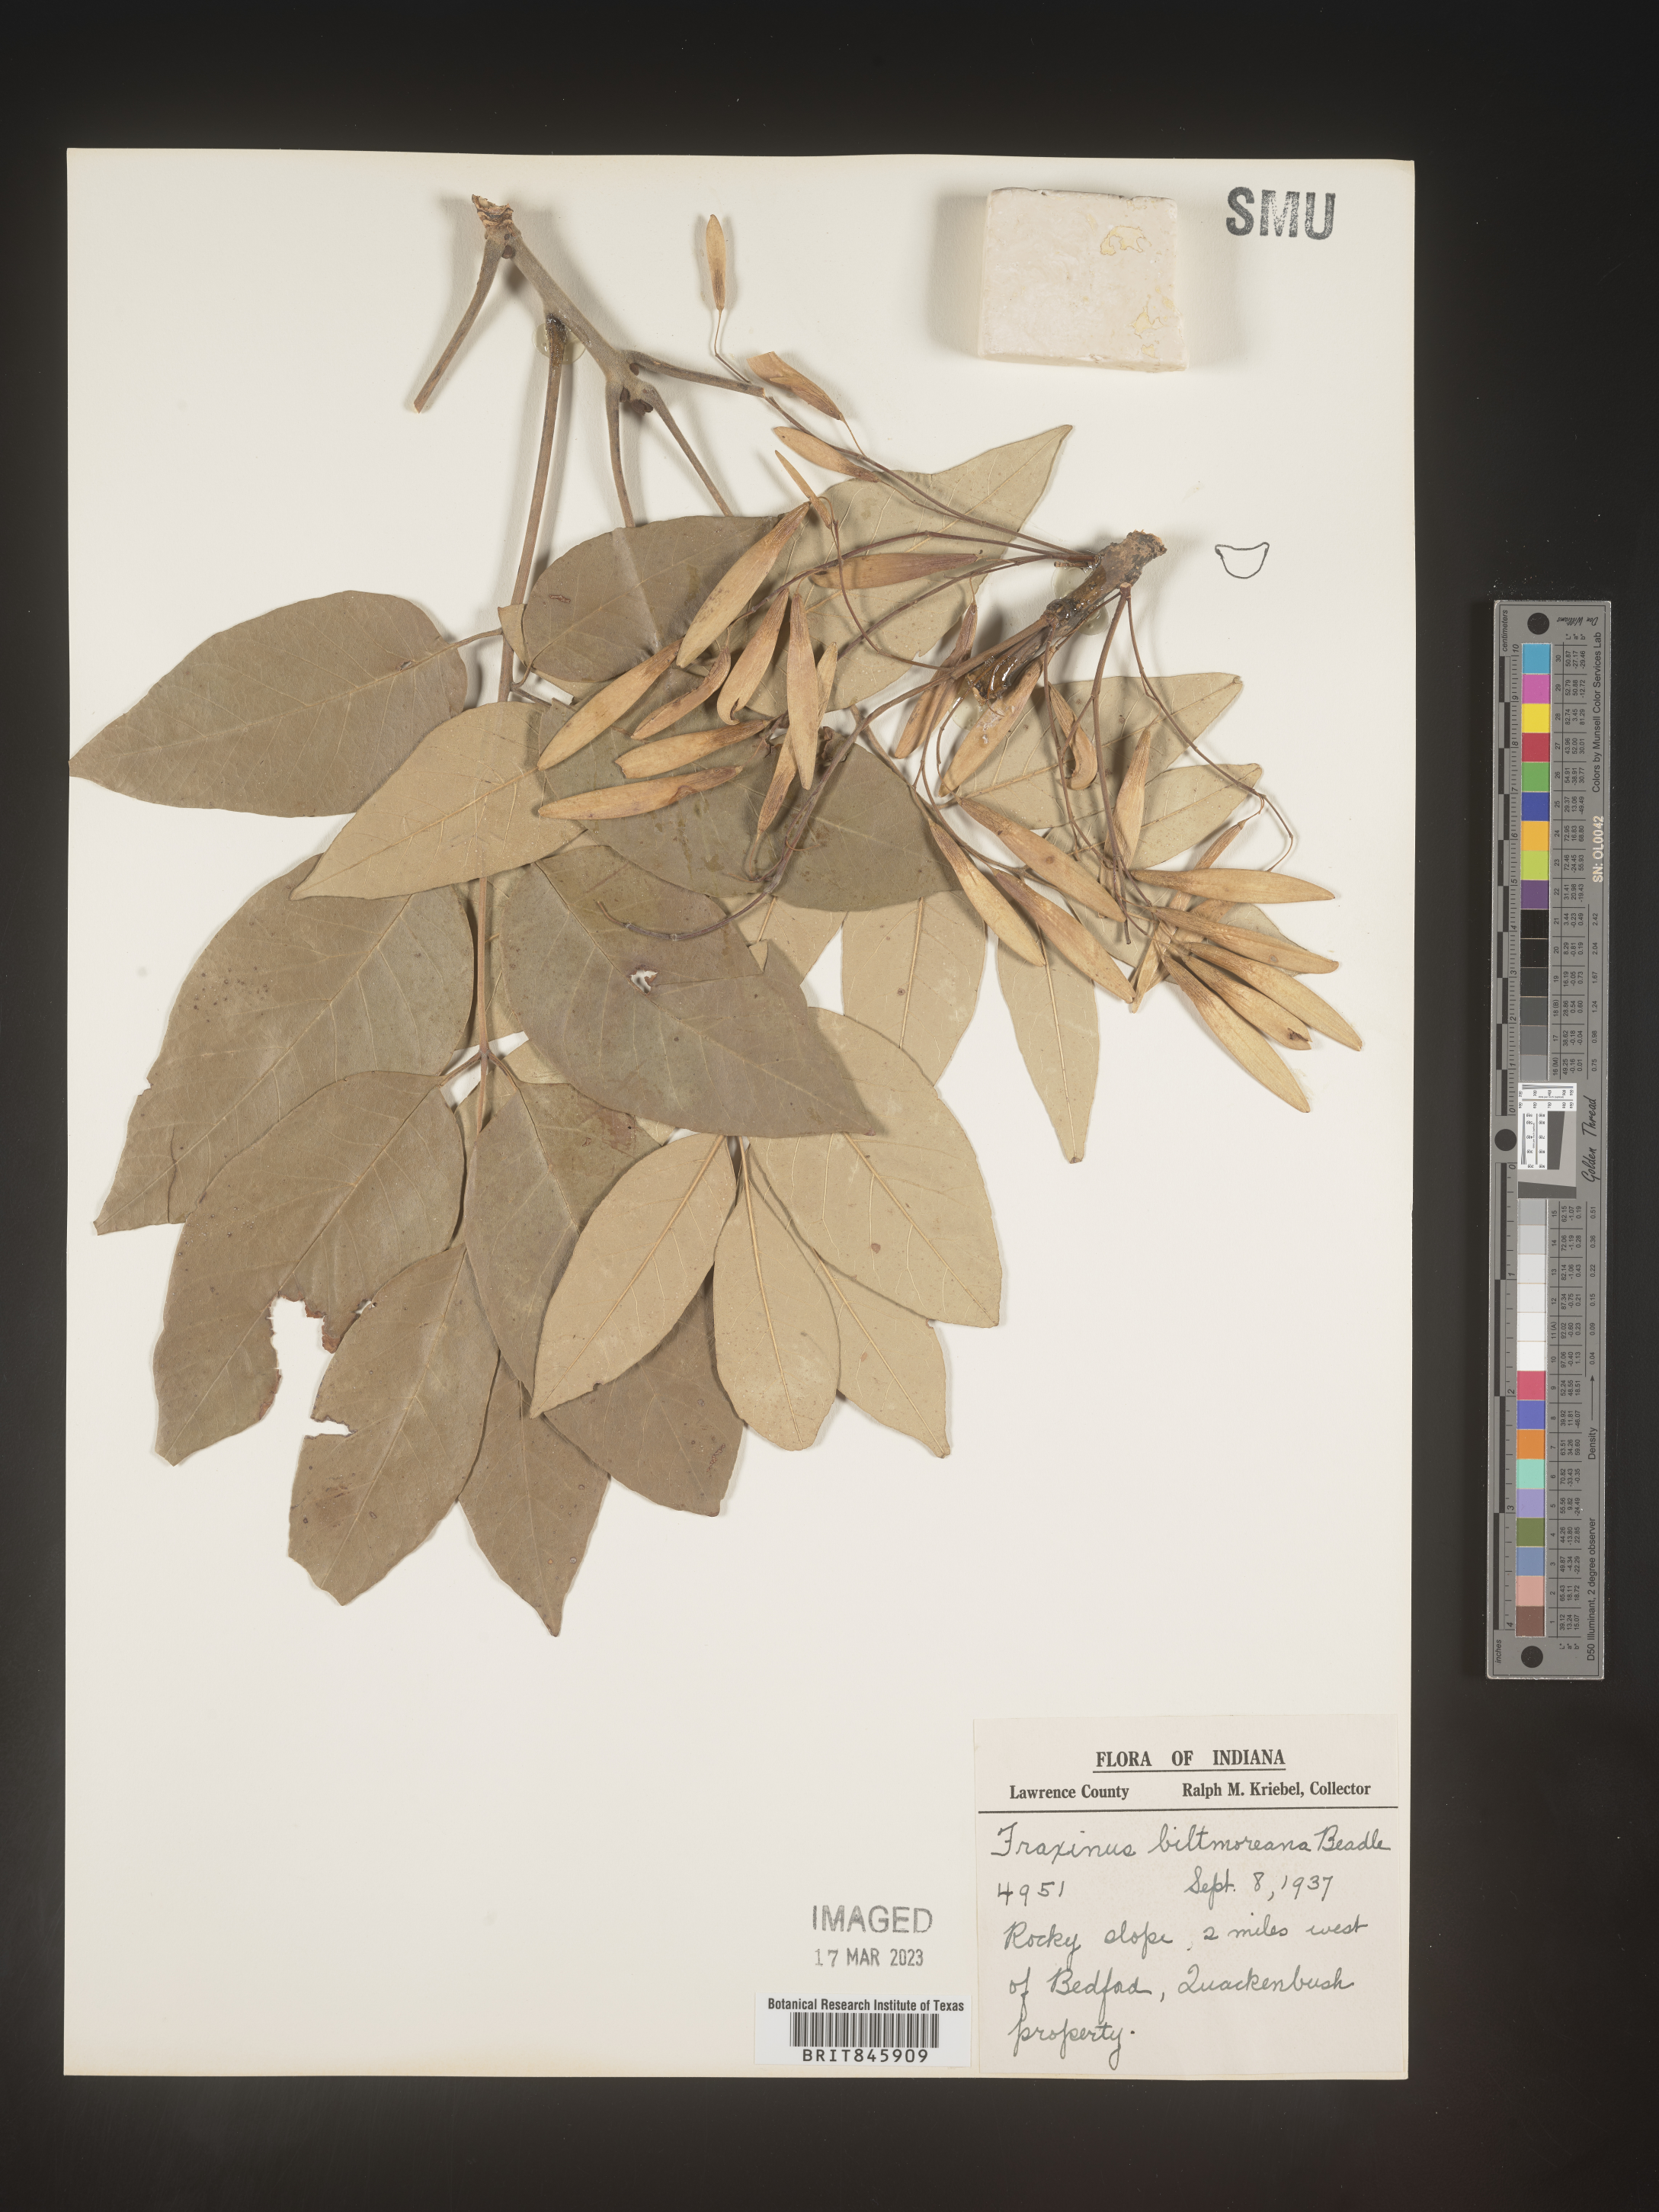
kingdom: Plantae
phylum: Tracheophyta
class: Magnoliopsida
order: Lamiales
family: Oleaceae
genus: Fraxinus
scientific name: Fraxinus americana
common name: White ash
